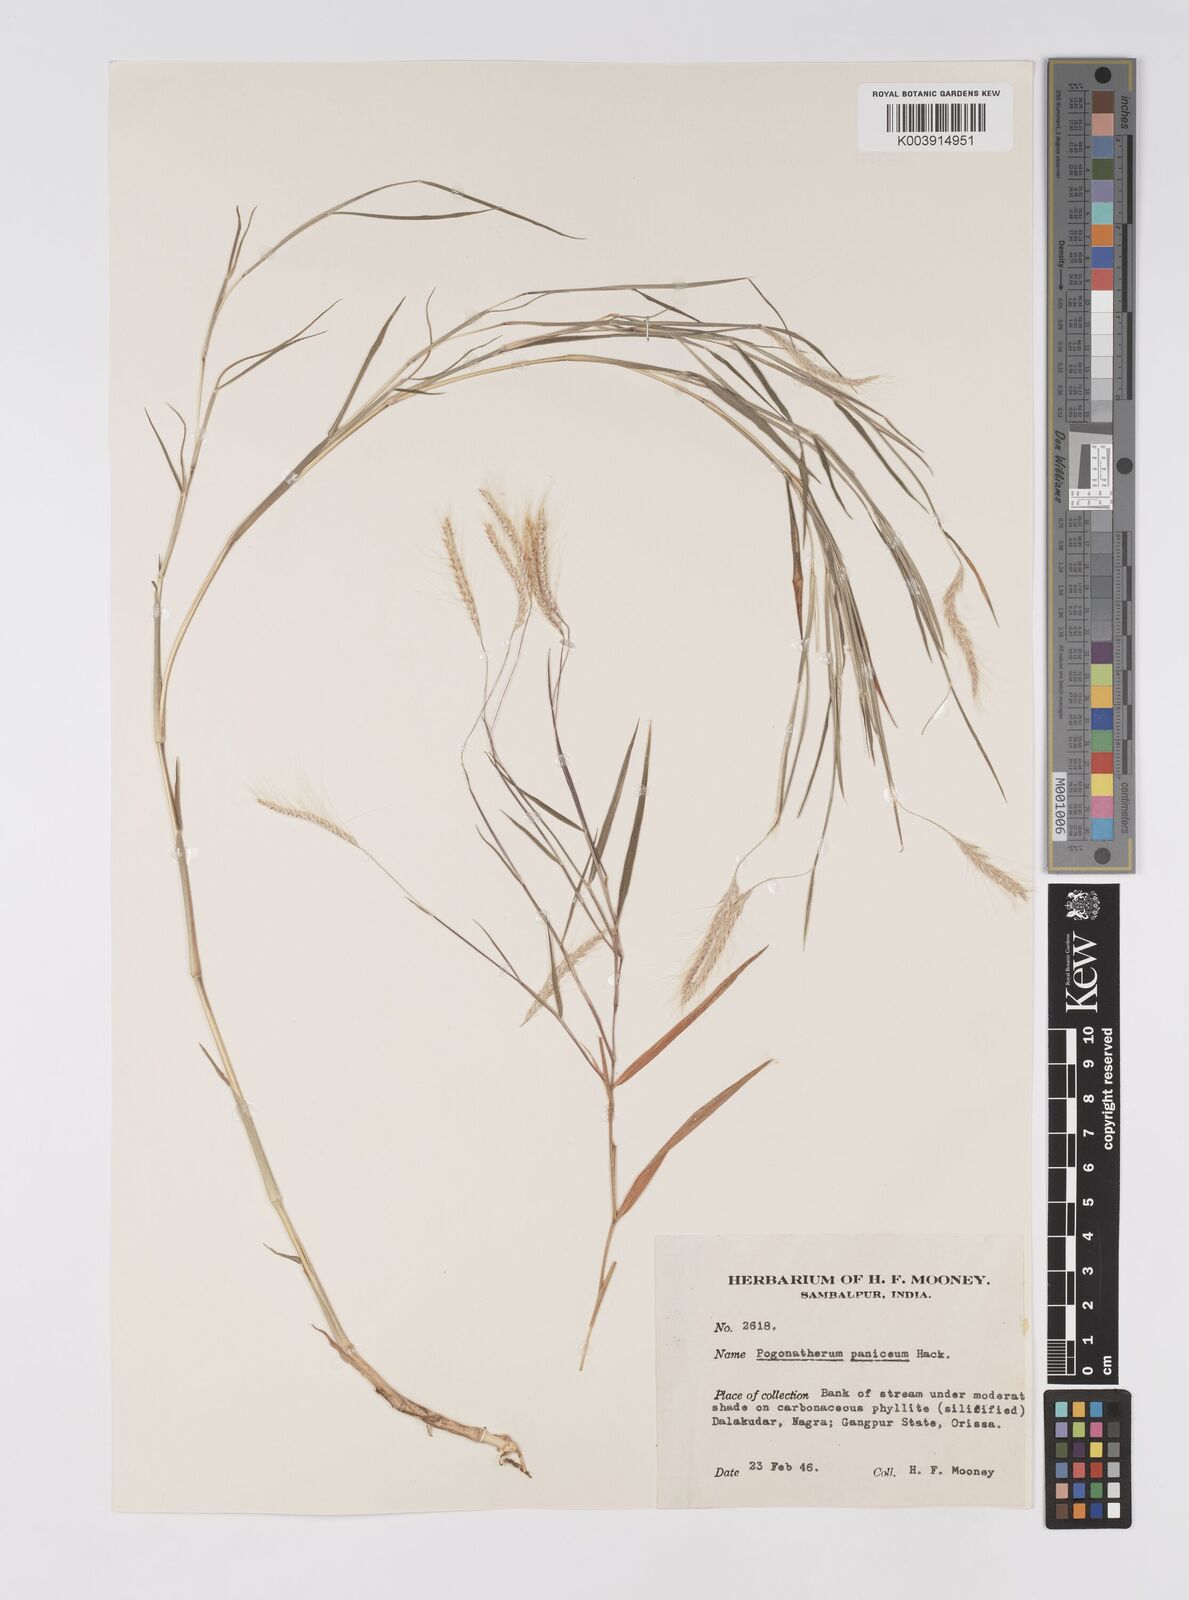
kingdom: Plantae
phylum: Tracheophyta
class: Liliopsida
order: Poales
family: Poaceae
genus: Pogonatherum
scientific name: Pogonatherum paniceum
